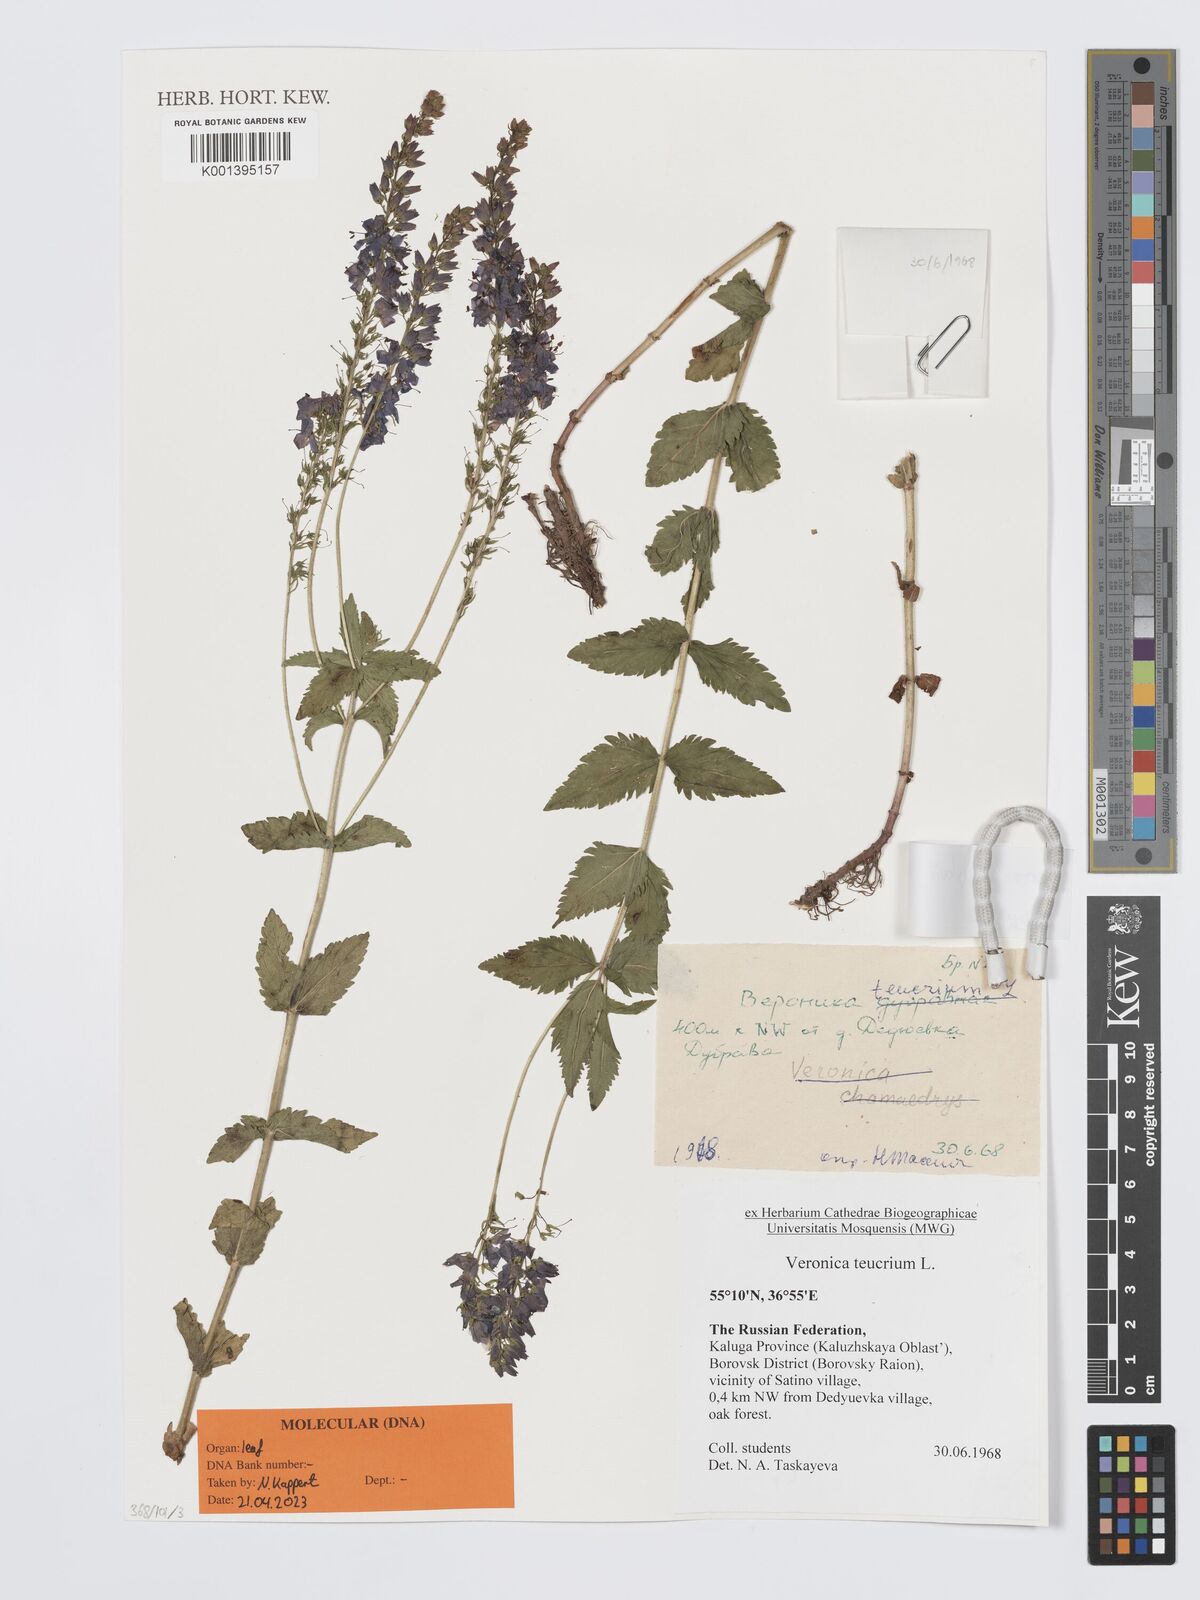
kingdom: Plantae
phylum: Tracheophyta
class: Magnoliopsida
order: Lamiales
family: Plantaginaceae
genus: Veronica
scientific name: Veronica teucrium
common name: Large speedwell
